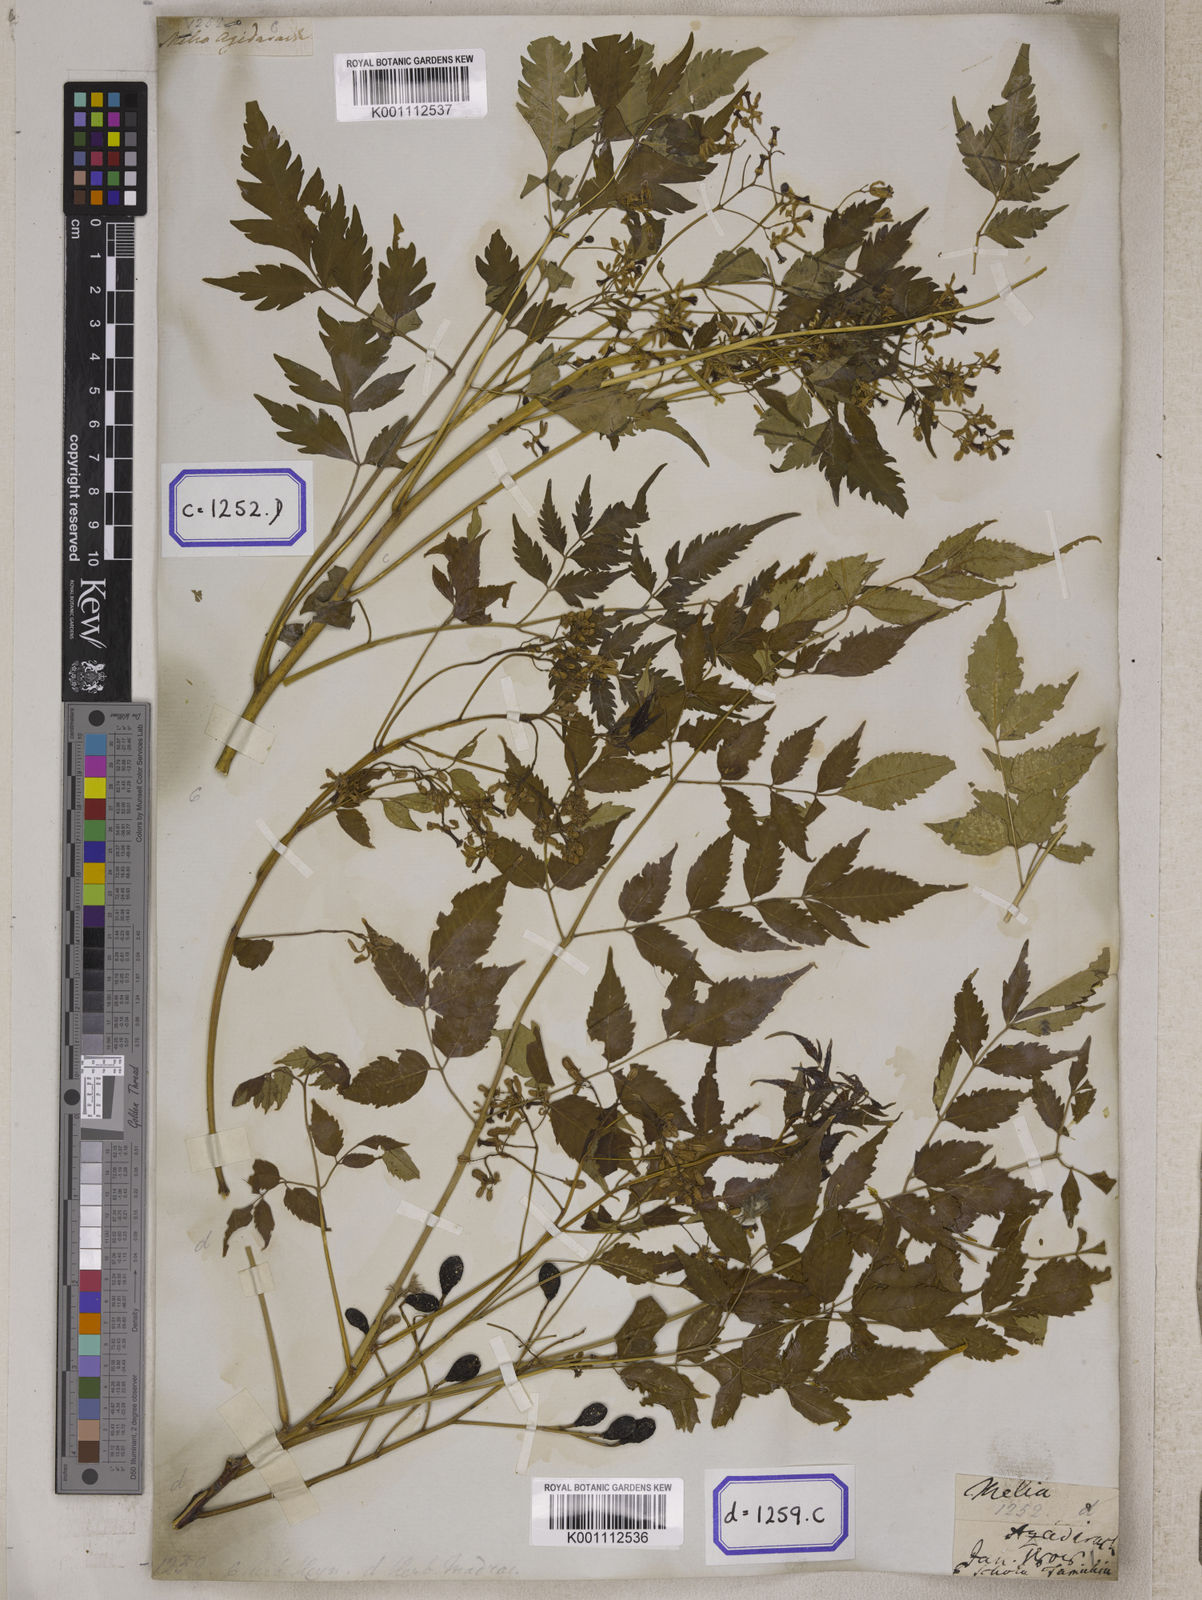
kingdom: Plantae
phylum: Tracheophyta
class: Magnoliopsida
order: Sapindales
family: Meliaceae
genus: Melia
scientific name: Melia azedarach
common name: Chinaberrytree
